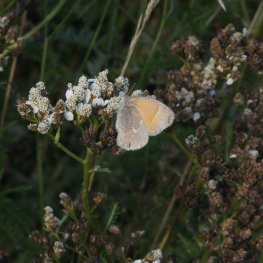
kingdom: Animalia
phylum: Arthropoda
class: Insecta
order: Lepidoptera
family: Nymphalidae
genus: Coenonympha
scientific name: Coenonympha tullia
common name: Large Heath
